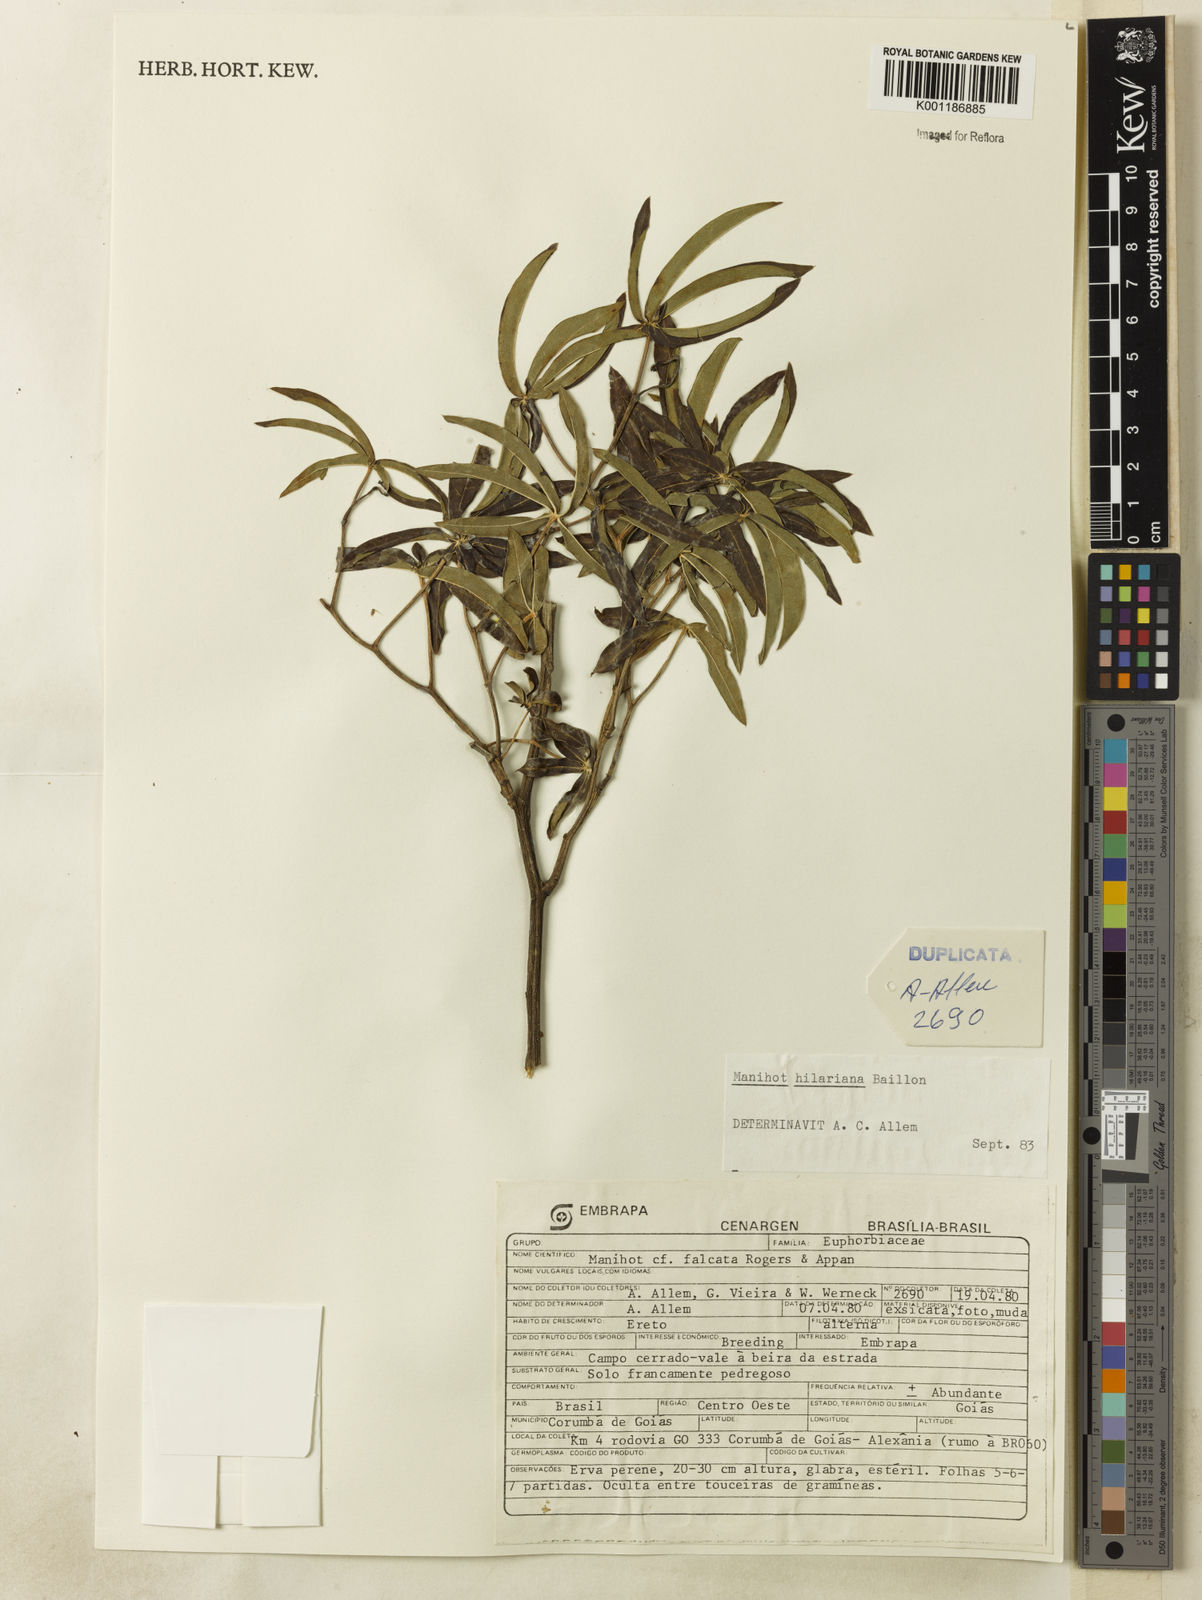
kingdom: Plantae
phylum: Tracheophyta
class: Magnoliopsida
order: Malpighiales
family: Euphorbiaceae
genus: Manihot
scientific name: Manihot hilariana
